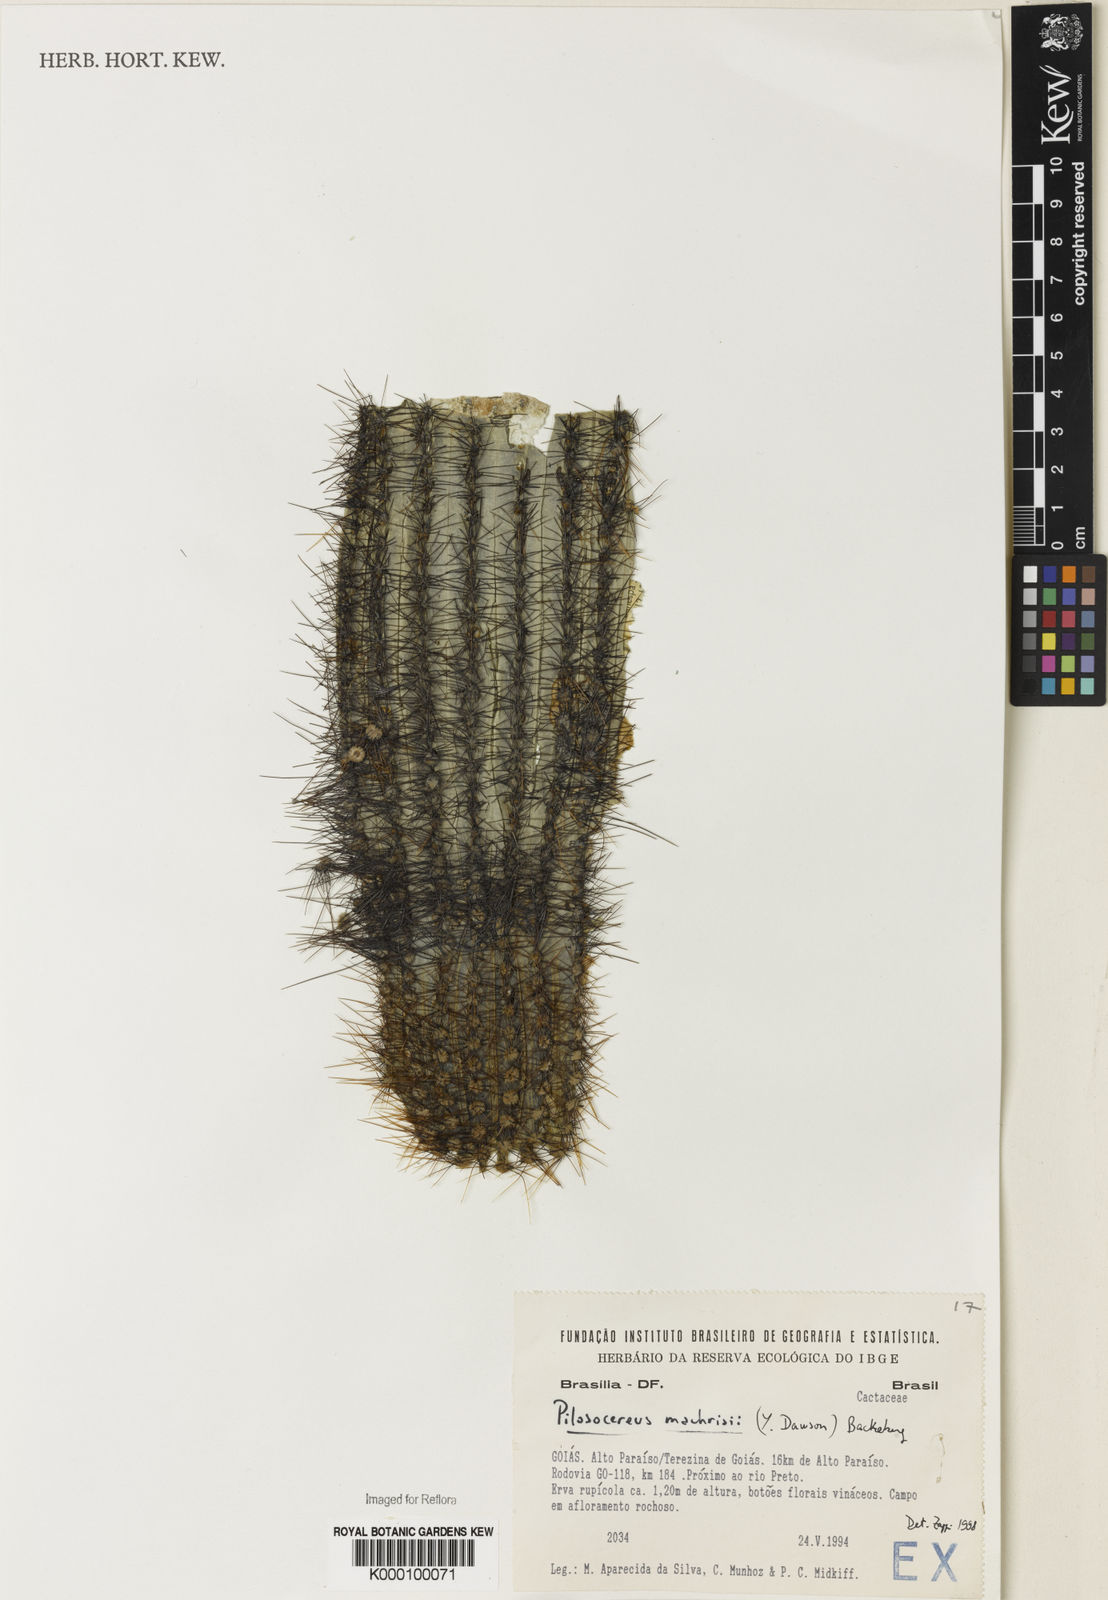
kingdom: Plantae
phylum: Tracheophyta
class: Magnoliopsida
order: Caryophyllales
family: Cactaceae
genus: Pilosocereus
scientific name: Pilosocereus machrisii
